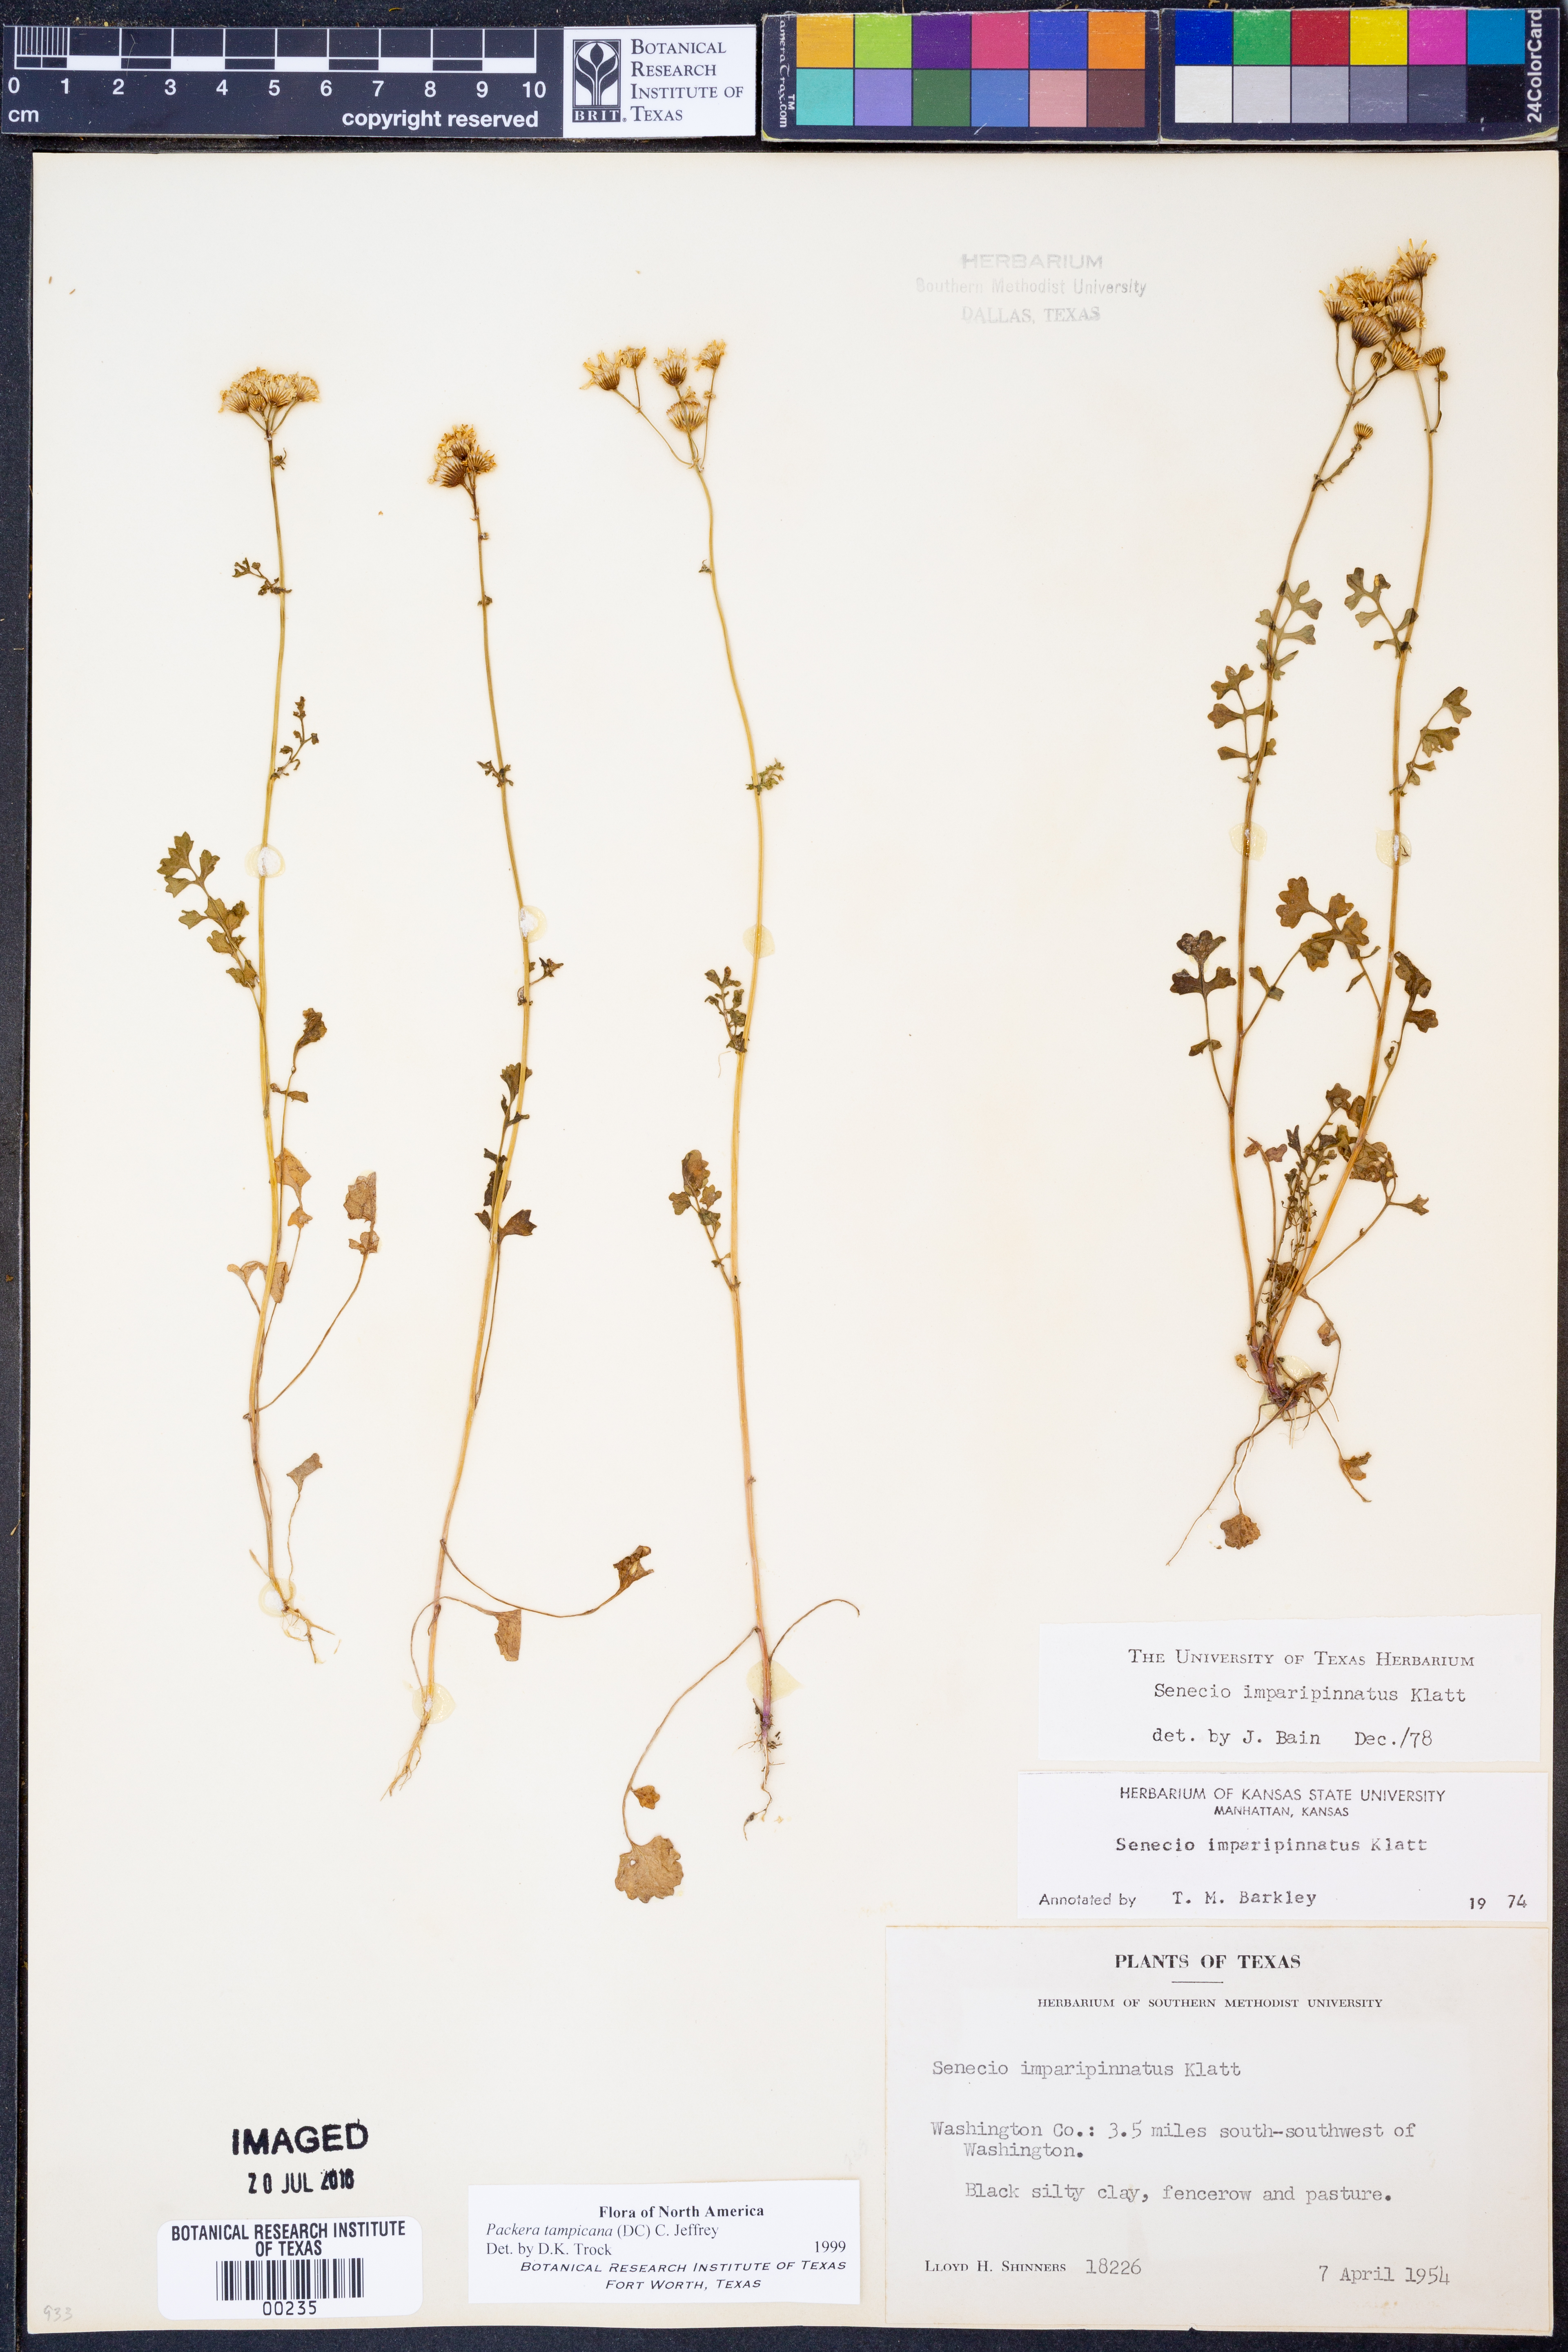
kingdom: Plantae
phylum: Tracheophyta
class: Magnoliopsida
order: Asterales
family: Asteraceae
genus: Packera
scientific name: Packera tampicana
